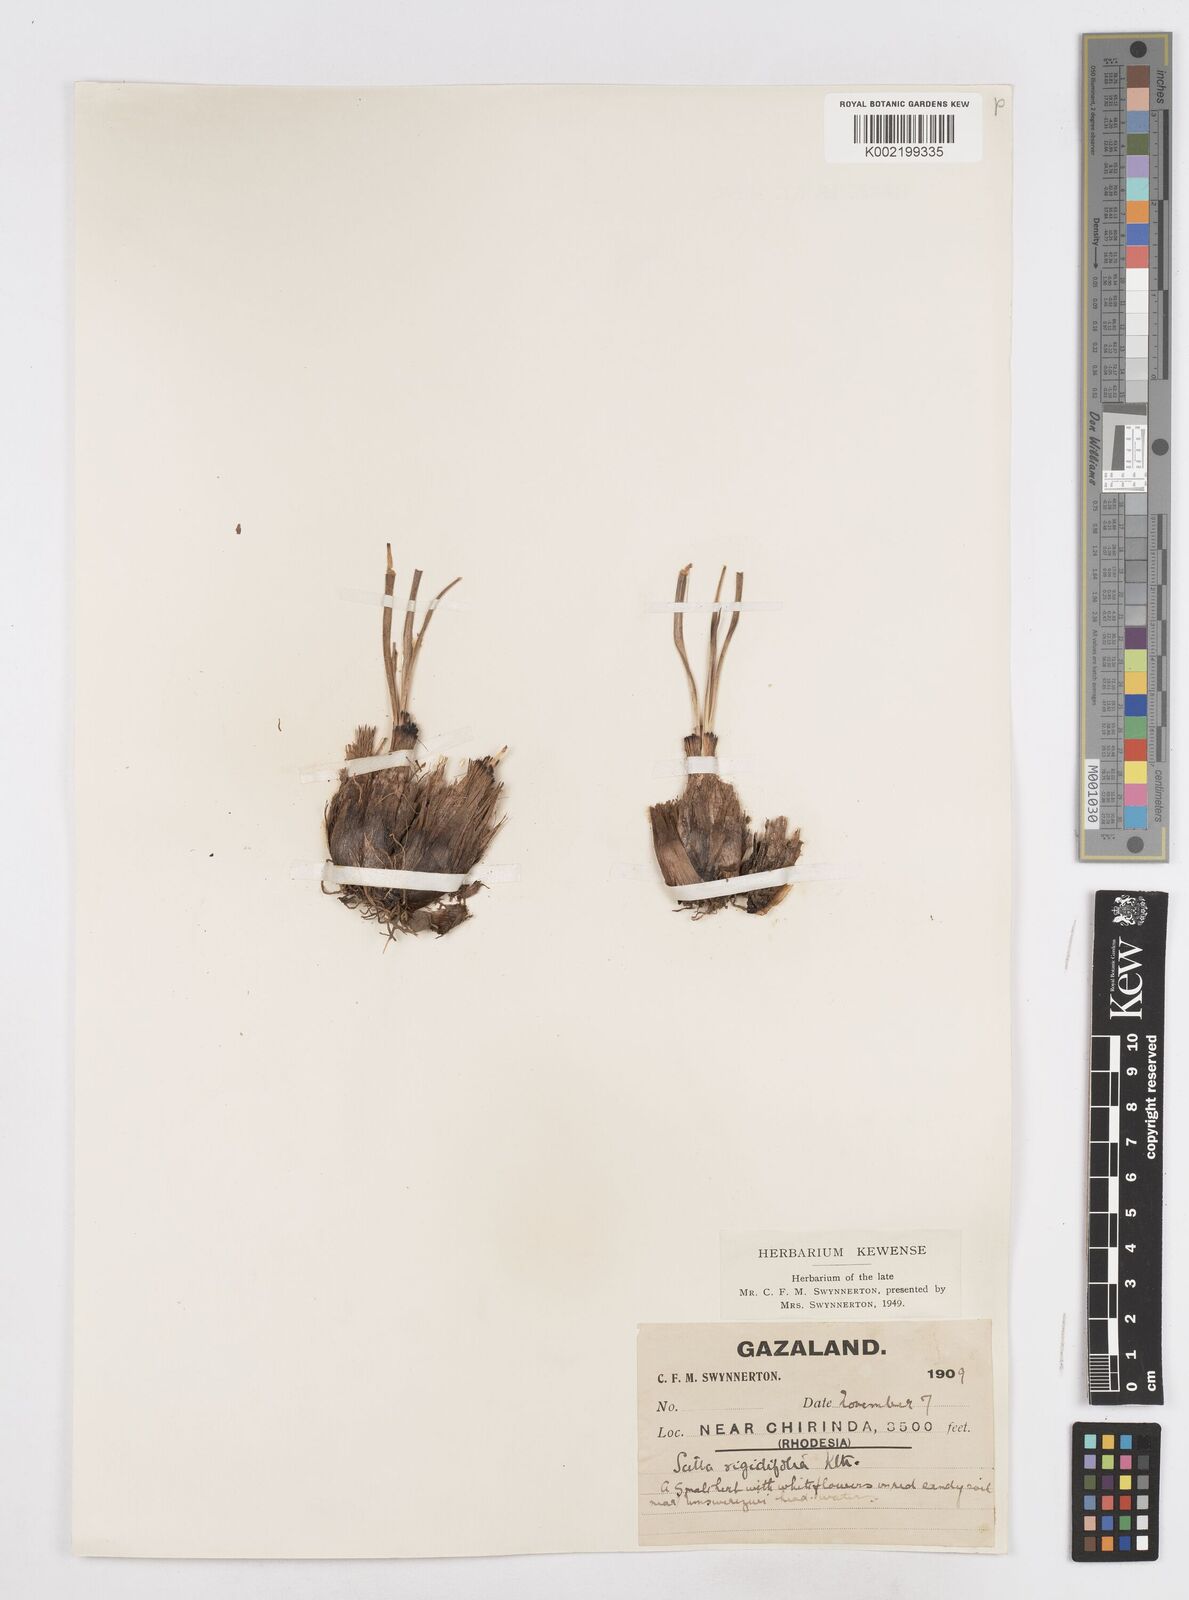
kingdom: Plantae
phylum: Tracheophyta
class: Liliopsida
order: Asparagales
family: Asparagaceae
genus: Schizocarphus
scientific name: Schizocarphus nervosus
